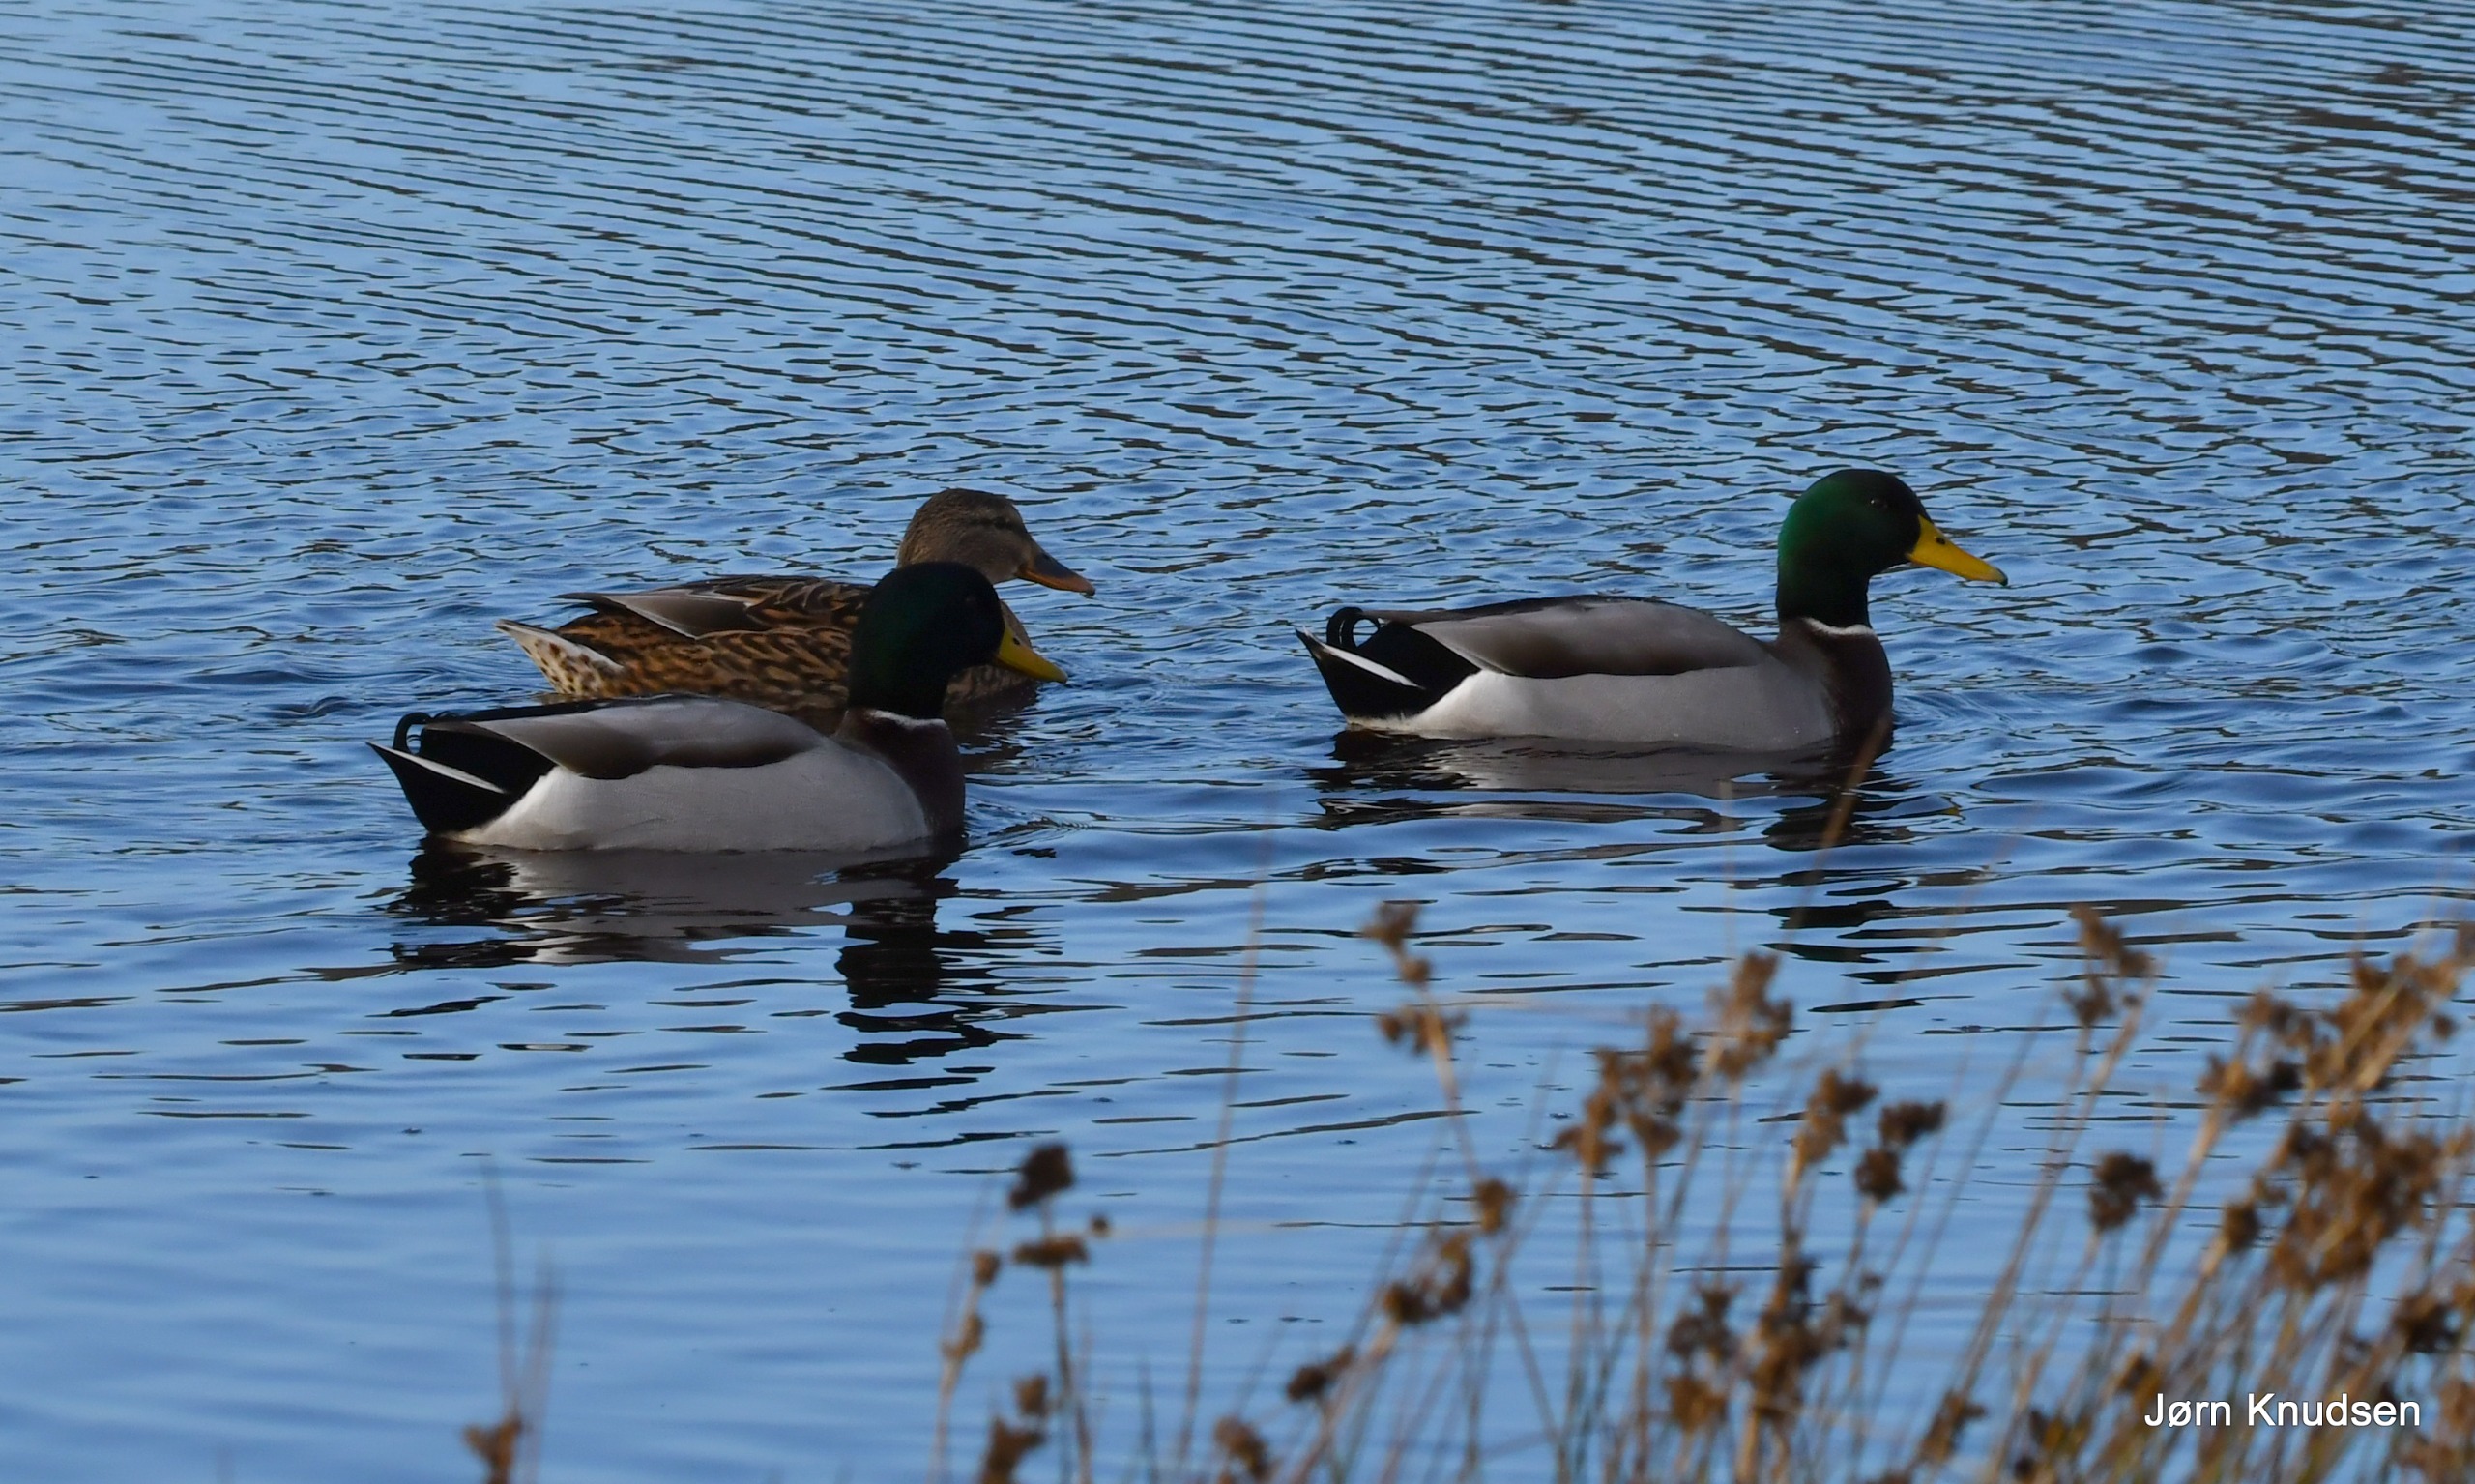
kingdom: Animalia
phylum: Chordata
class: Aves
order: Anseriformes
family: Anatidae
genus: Anas
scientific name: Anas platyrhynchos
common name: Gråand
